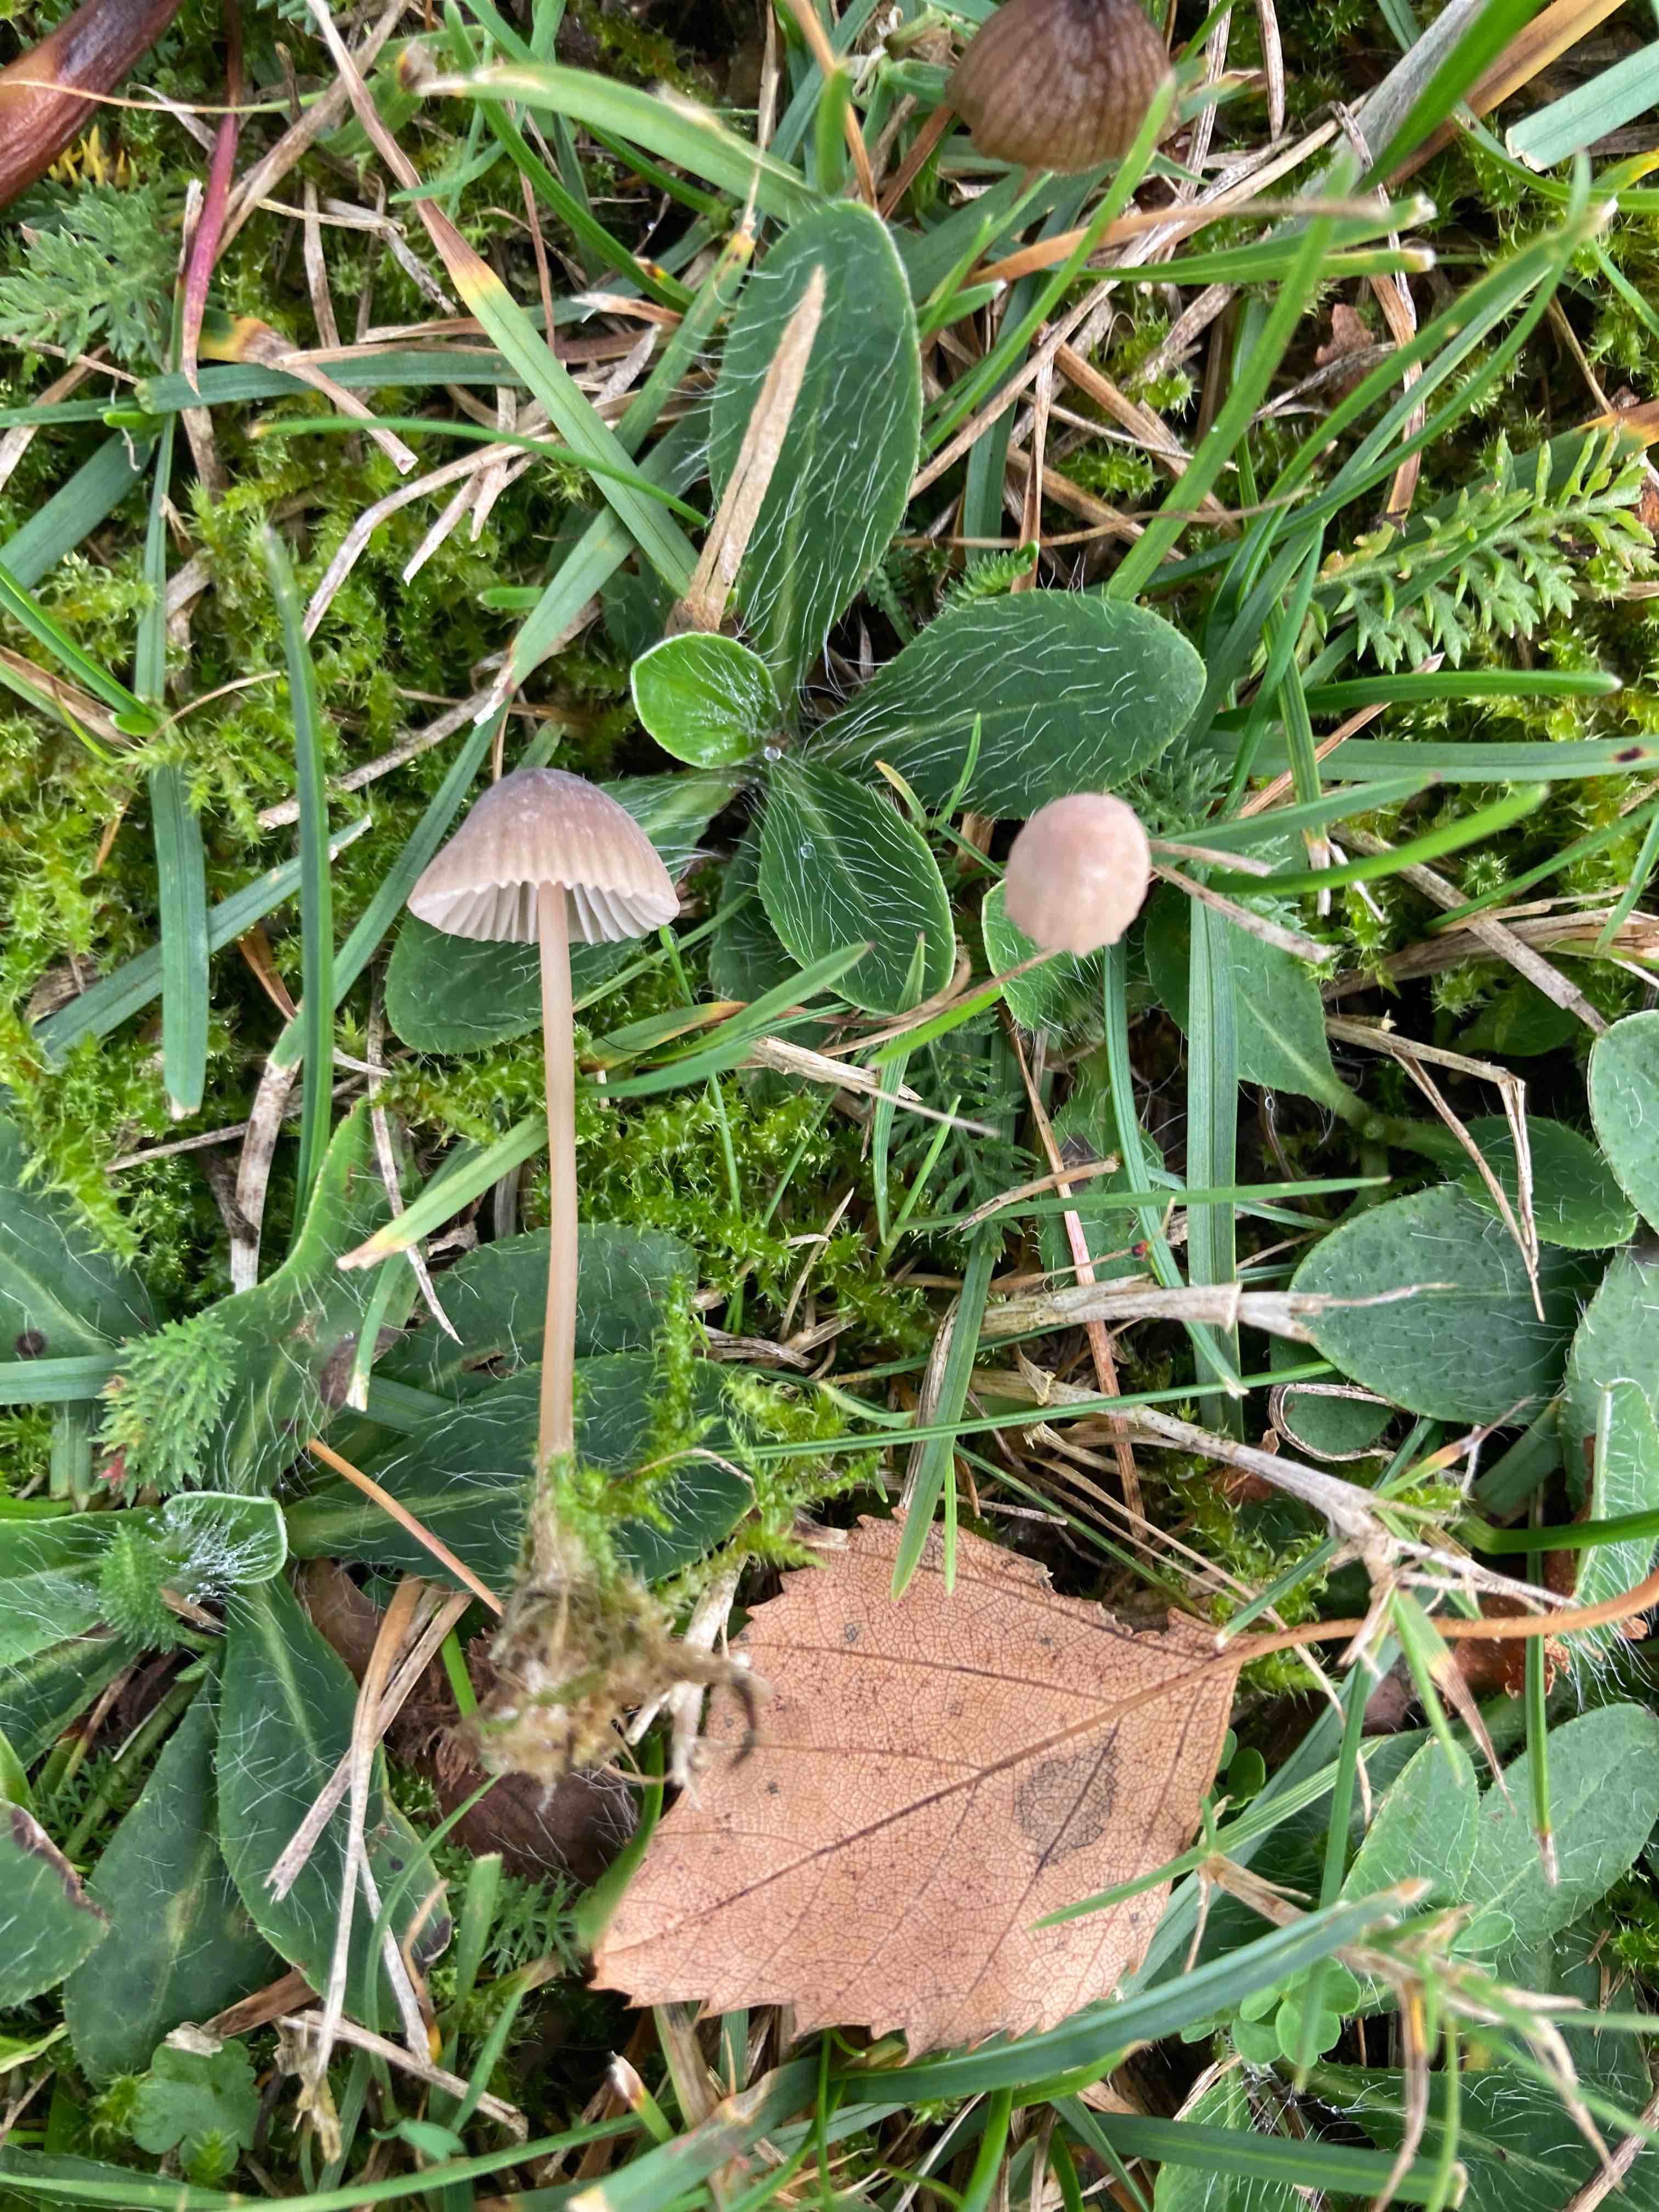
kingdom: Fungi
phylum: Basidiomycota
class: Agaricomycetes
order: Agaricales
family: Mycenaceae
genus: Mycena
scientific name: Mycena olivaceomarginata
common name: brunægget huesvamp
